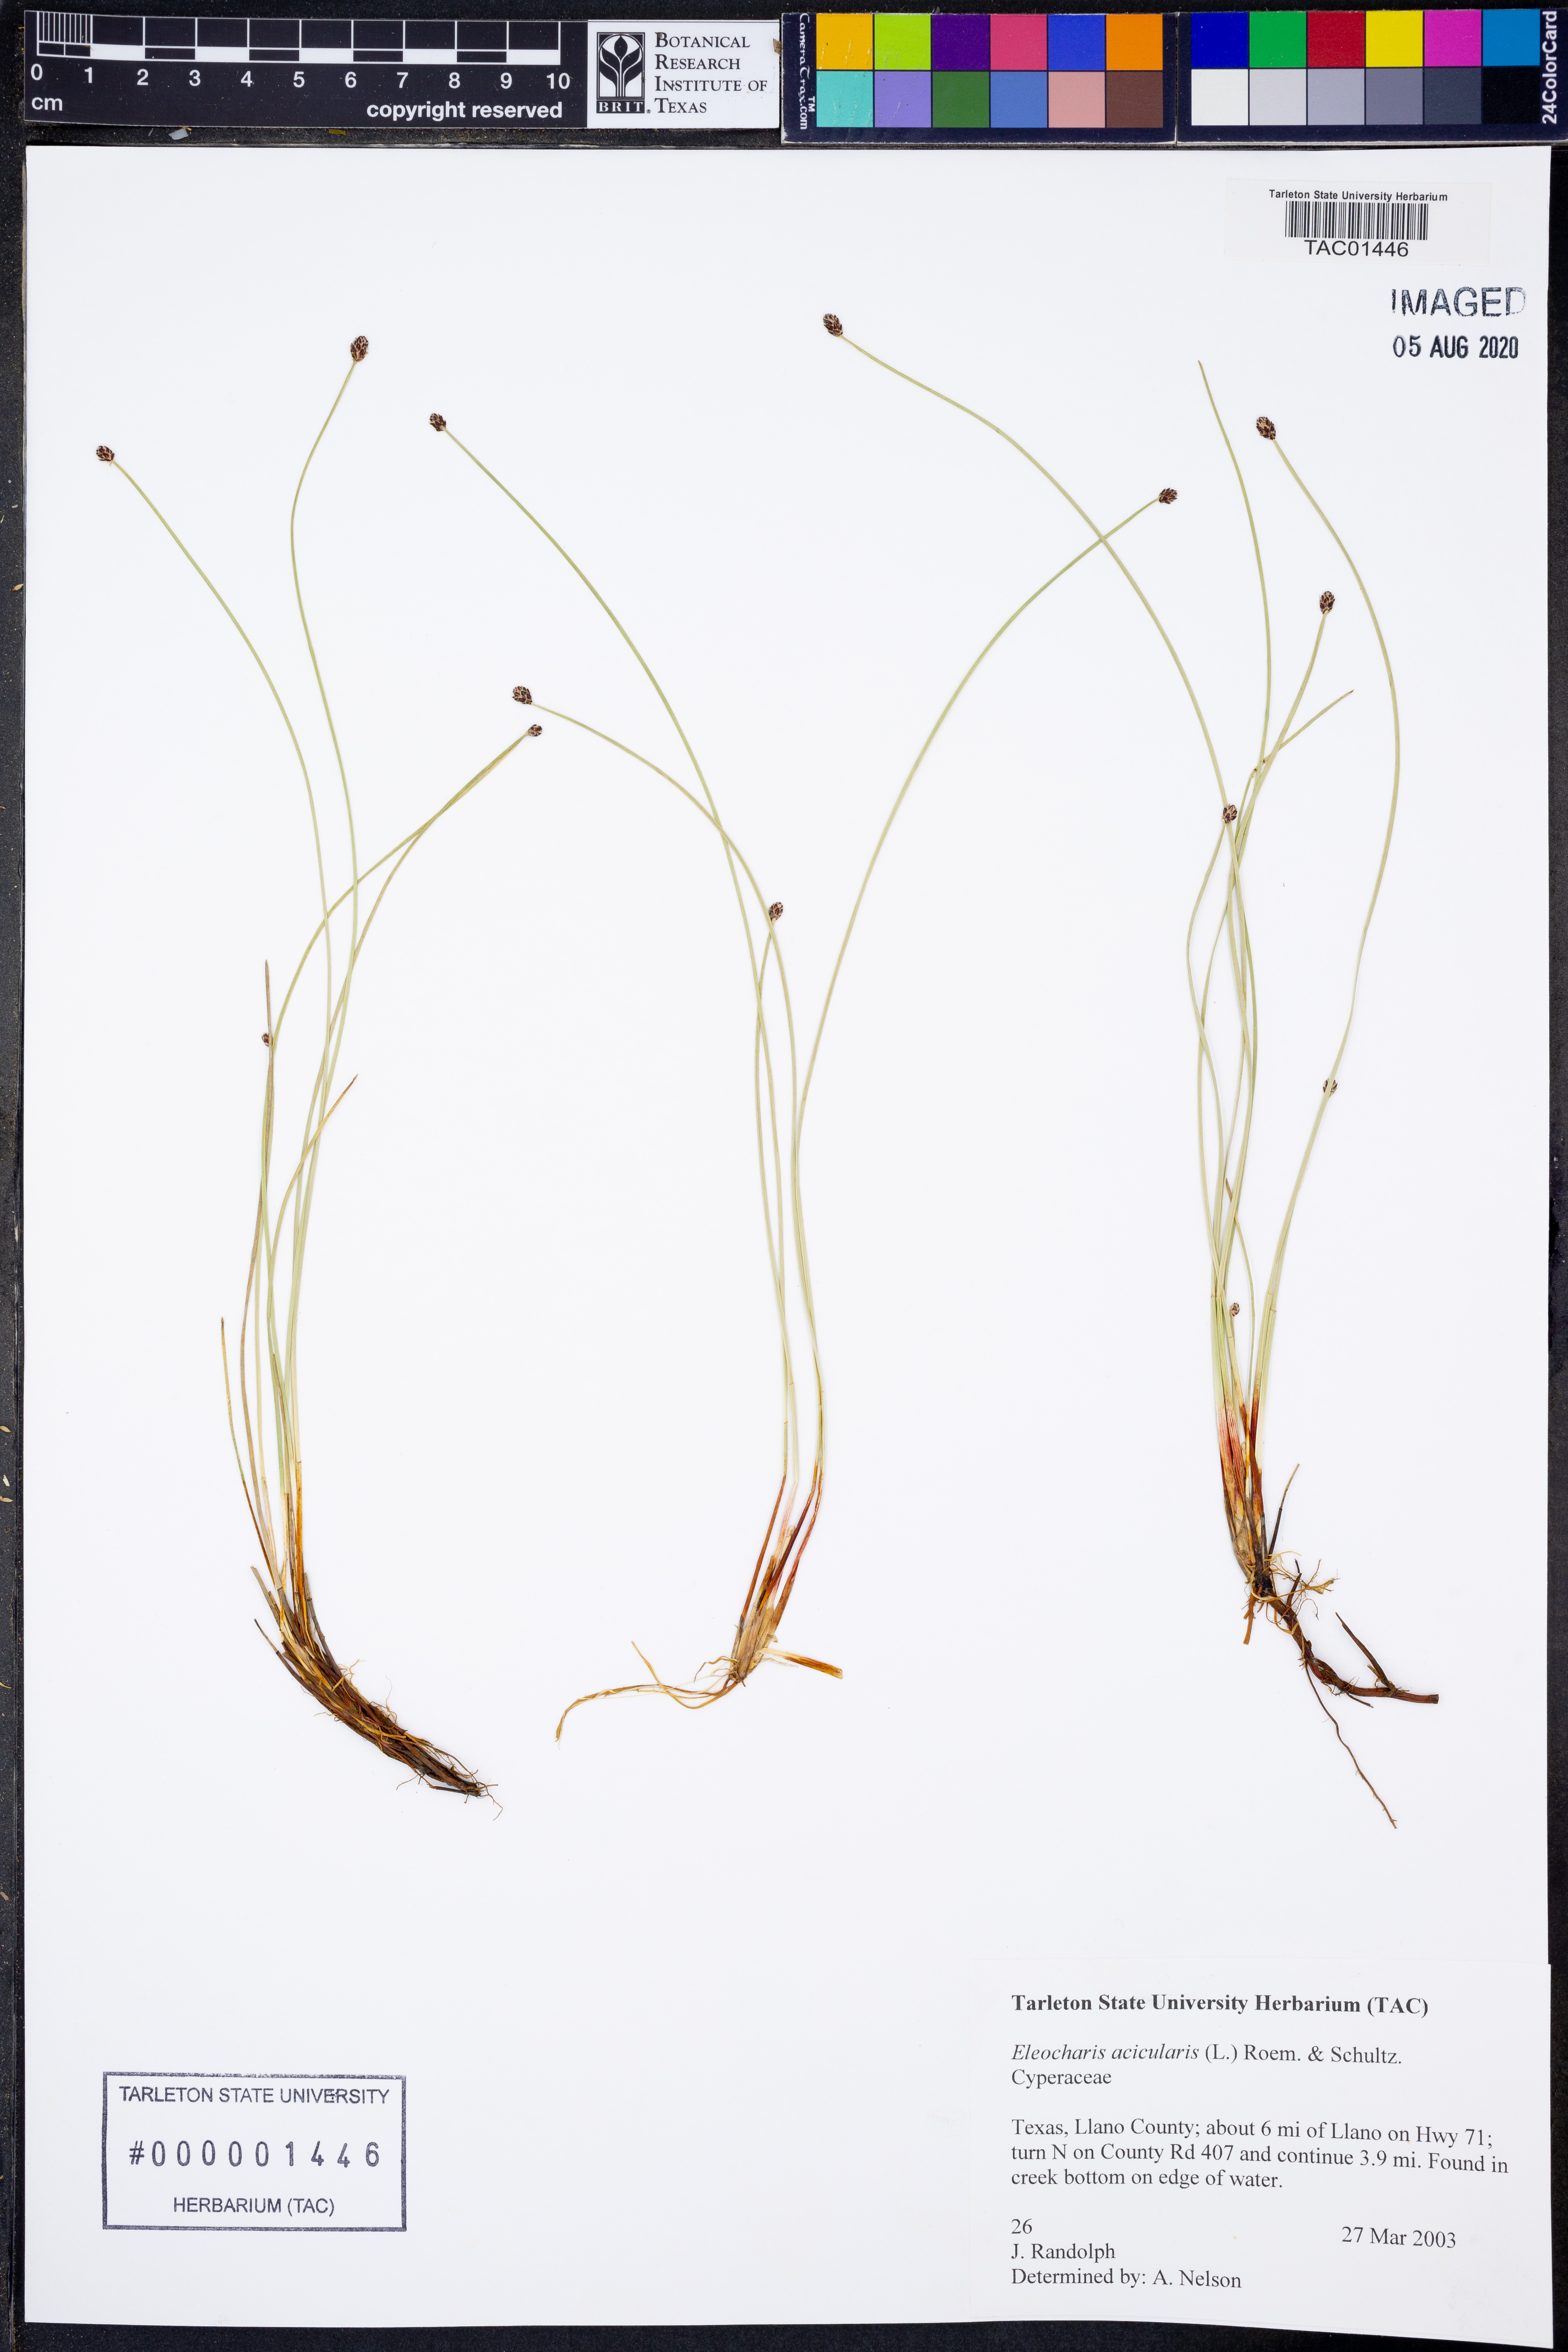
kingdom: Plantae
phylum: Tracheophyta
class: Liliopsida
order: Poales
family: Cyperaceae
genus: Eleocharis
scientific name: Eleocharis acicularis
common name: Needle spike-rush
